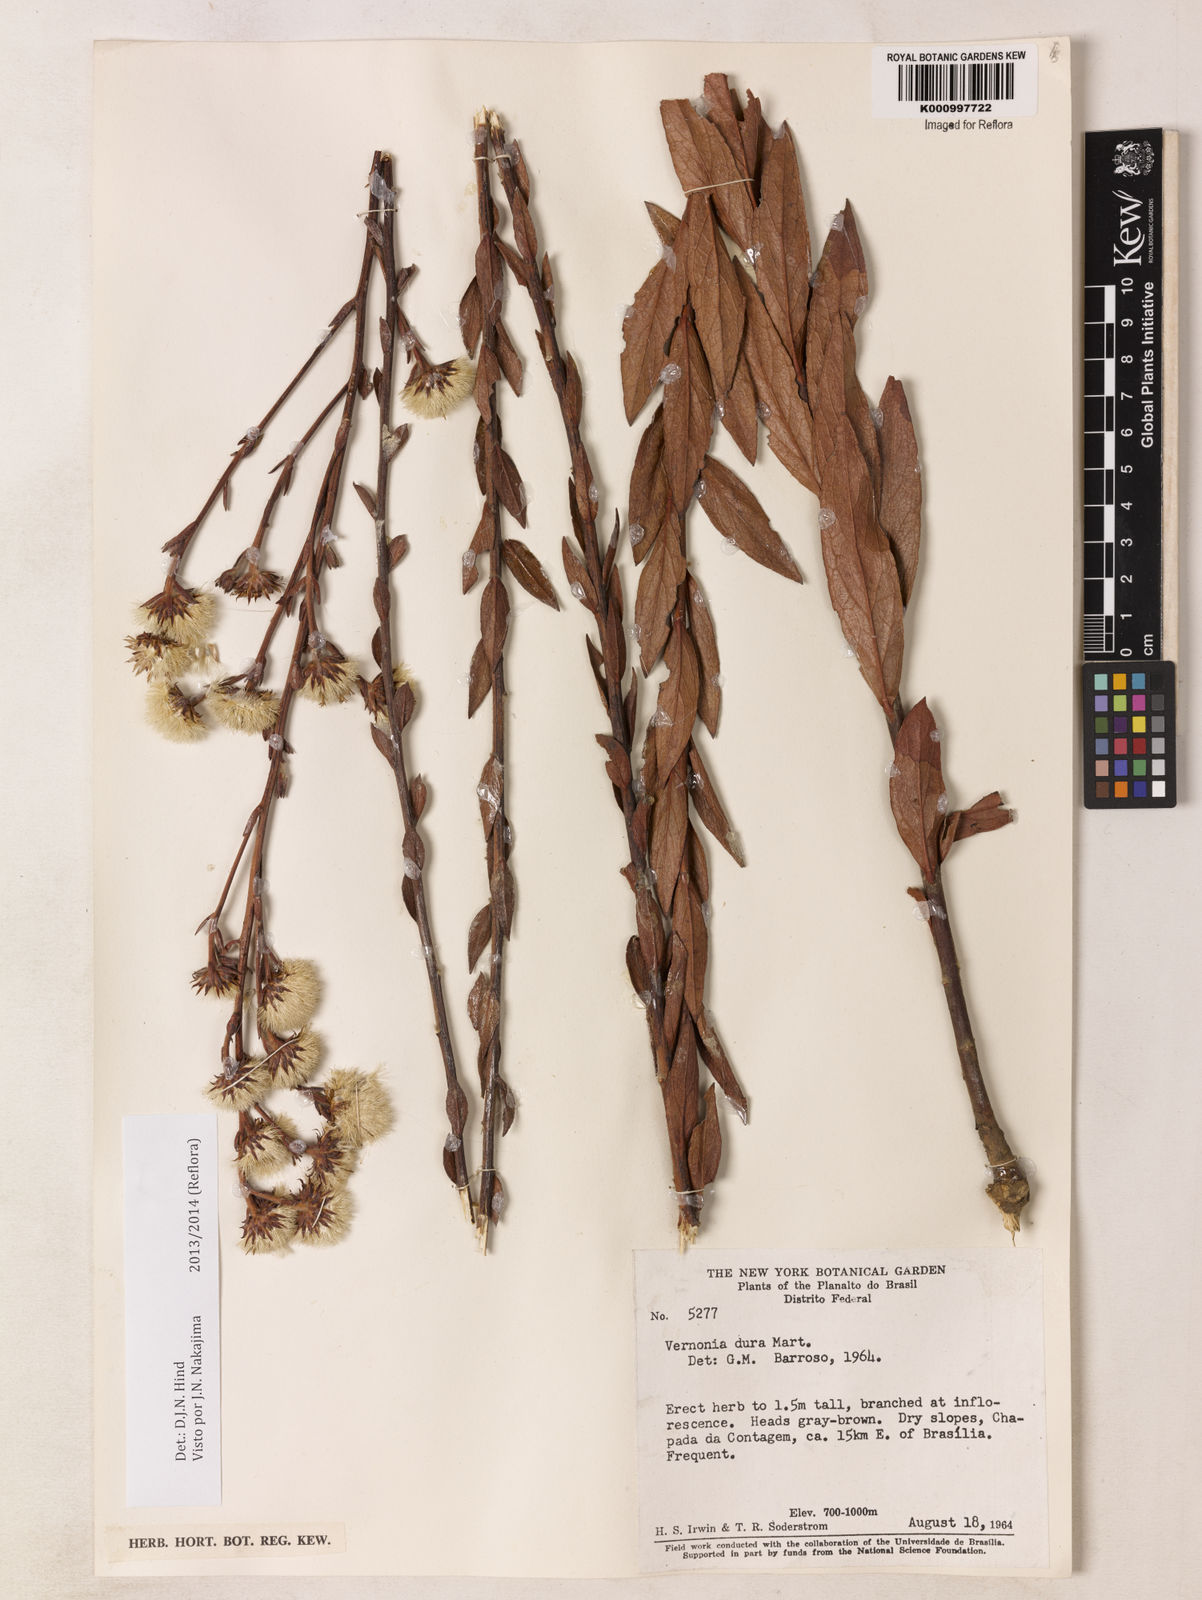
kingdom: Plantae
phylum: Tracheophyta
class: Magnoliopsida
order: Asterales
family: Asteraceae
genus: Lessingianthus
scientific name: Lessingianthus durus
